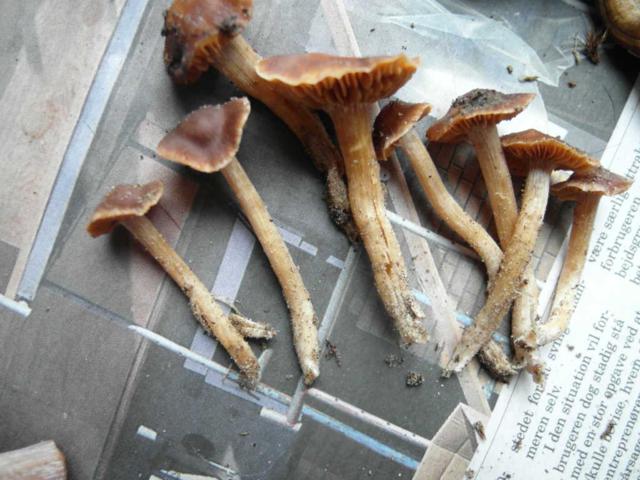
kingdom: Fungi
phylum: Basidiomycota
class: Agaricomycetes
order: Agaricales
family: Cortinariaceae
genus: Cortinarius
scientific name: Cortinarius
